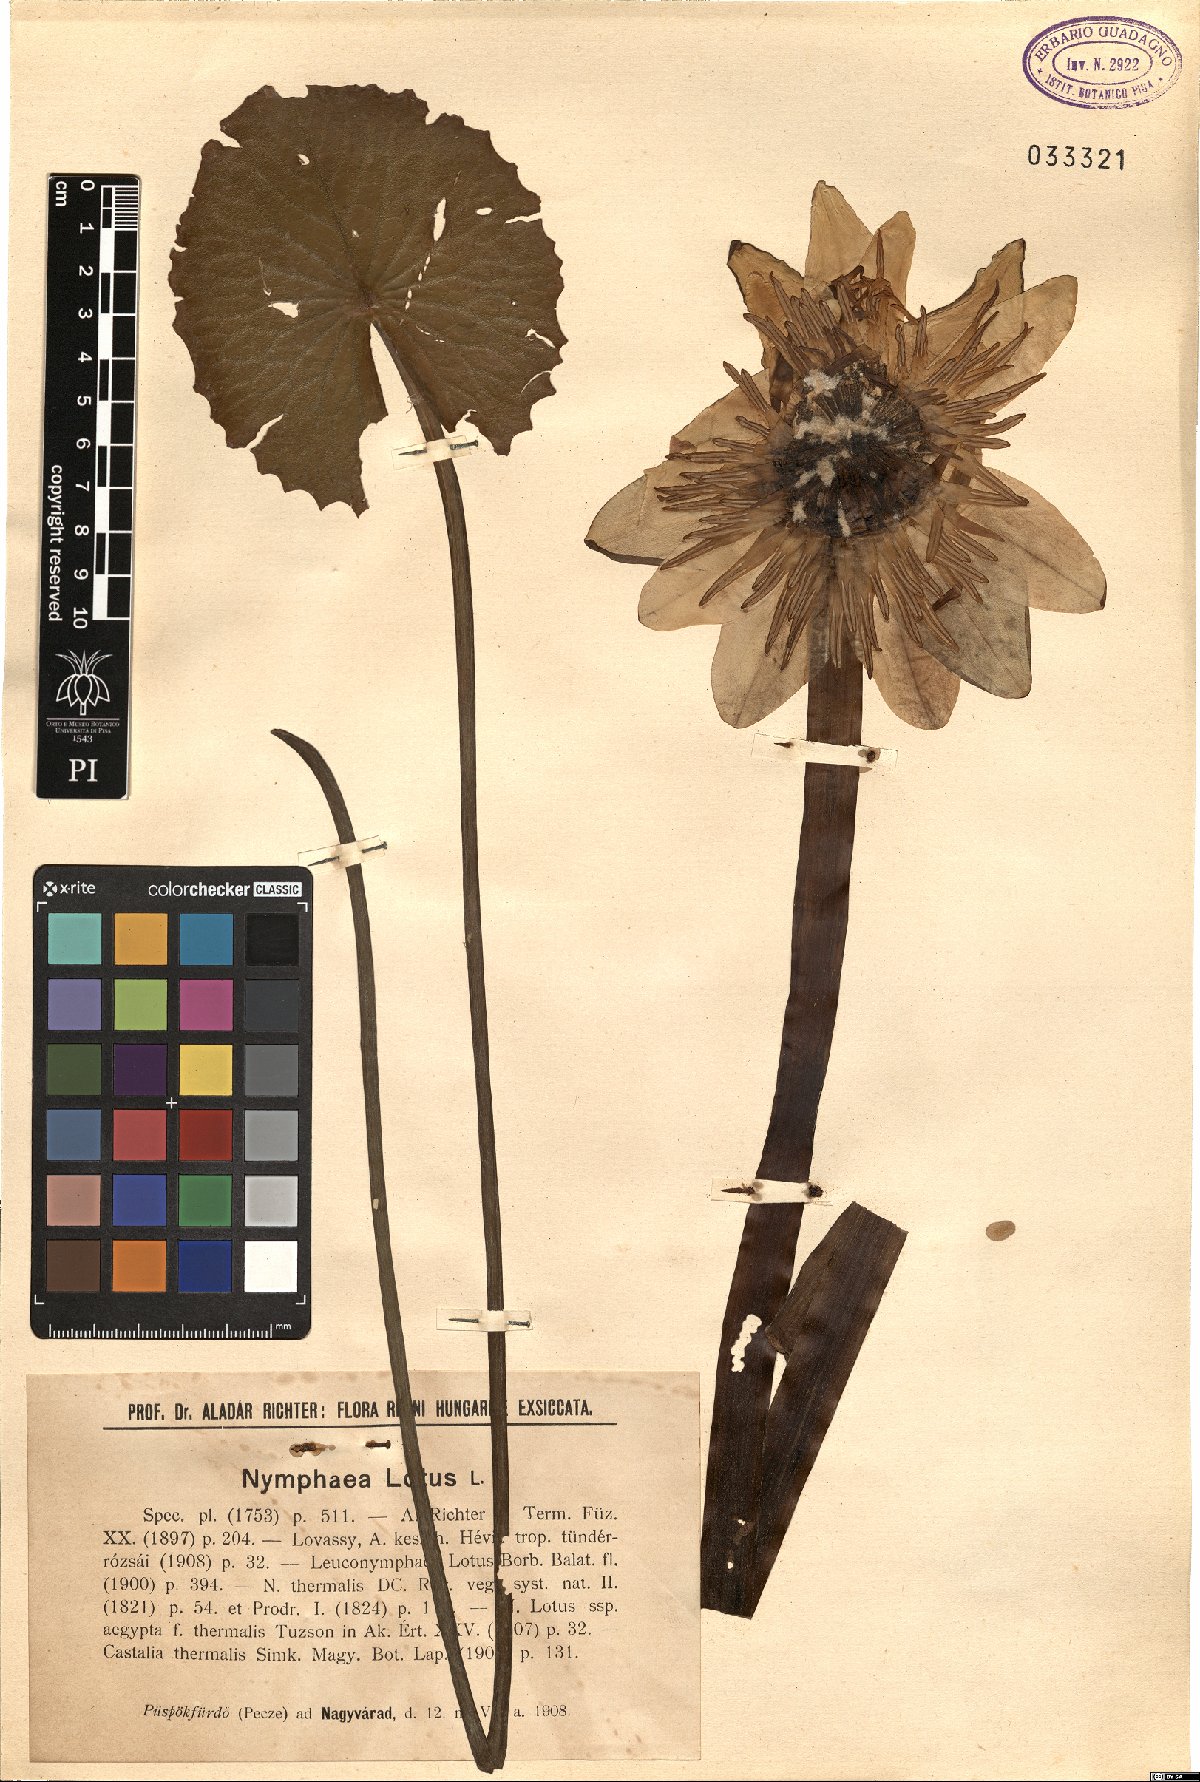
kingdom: Plantae
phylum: Tracheophyta
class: Magnoliopsida
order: Nymphaeales
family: Nymphaeaceae
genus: Nymphaea
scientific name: Nymphaea lotus
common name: White egyptian lotus
